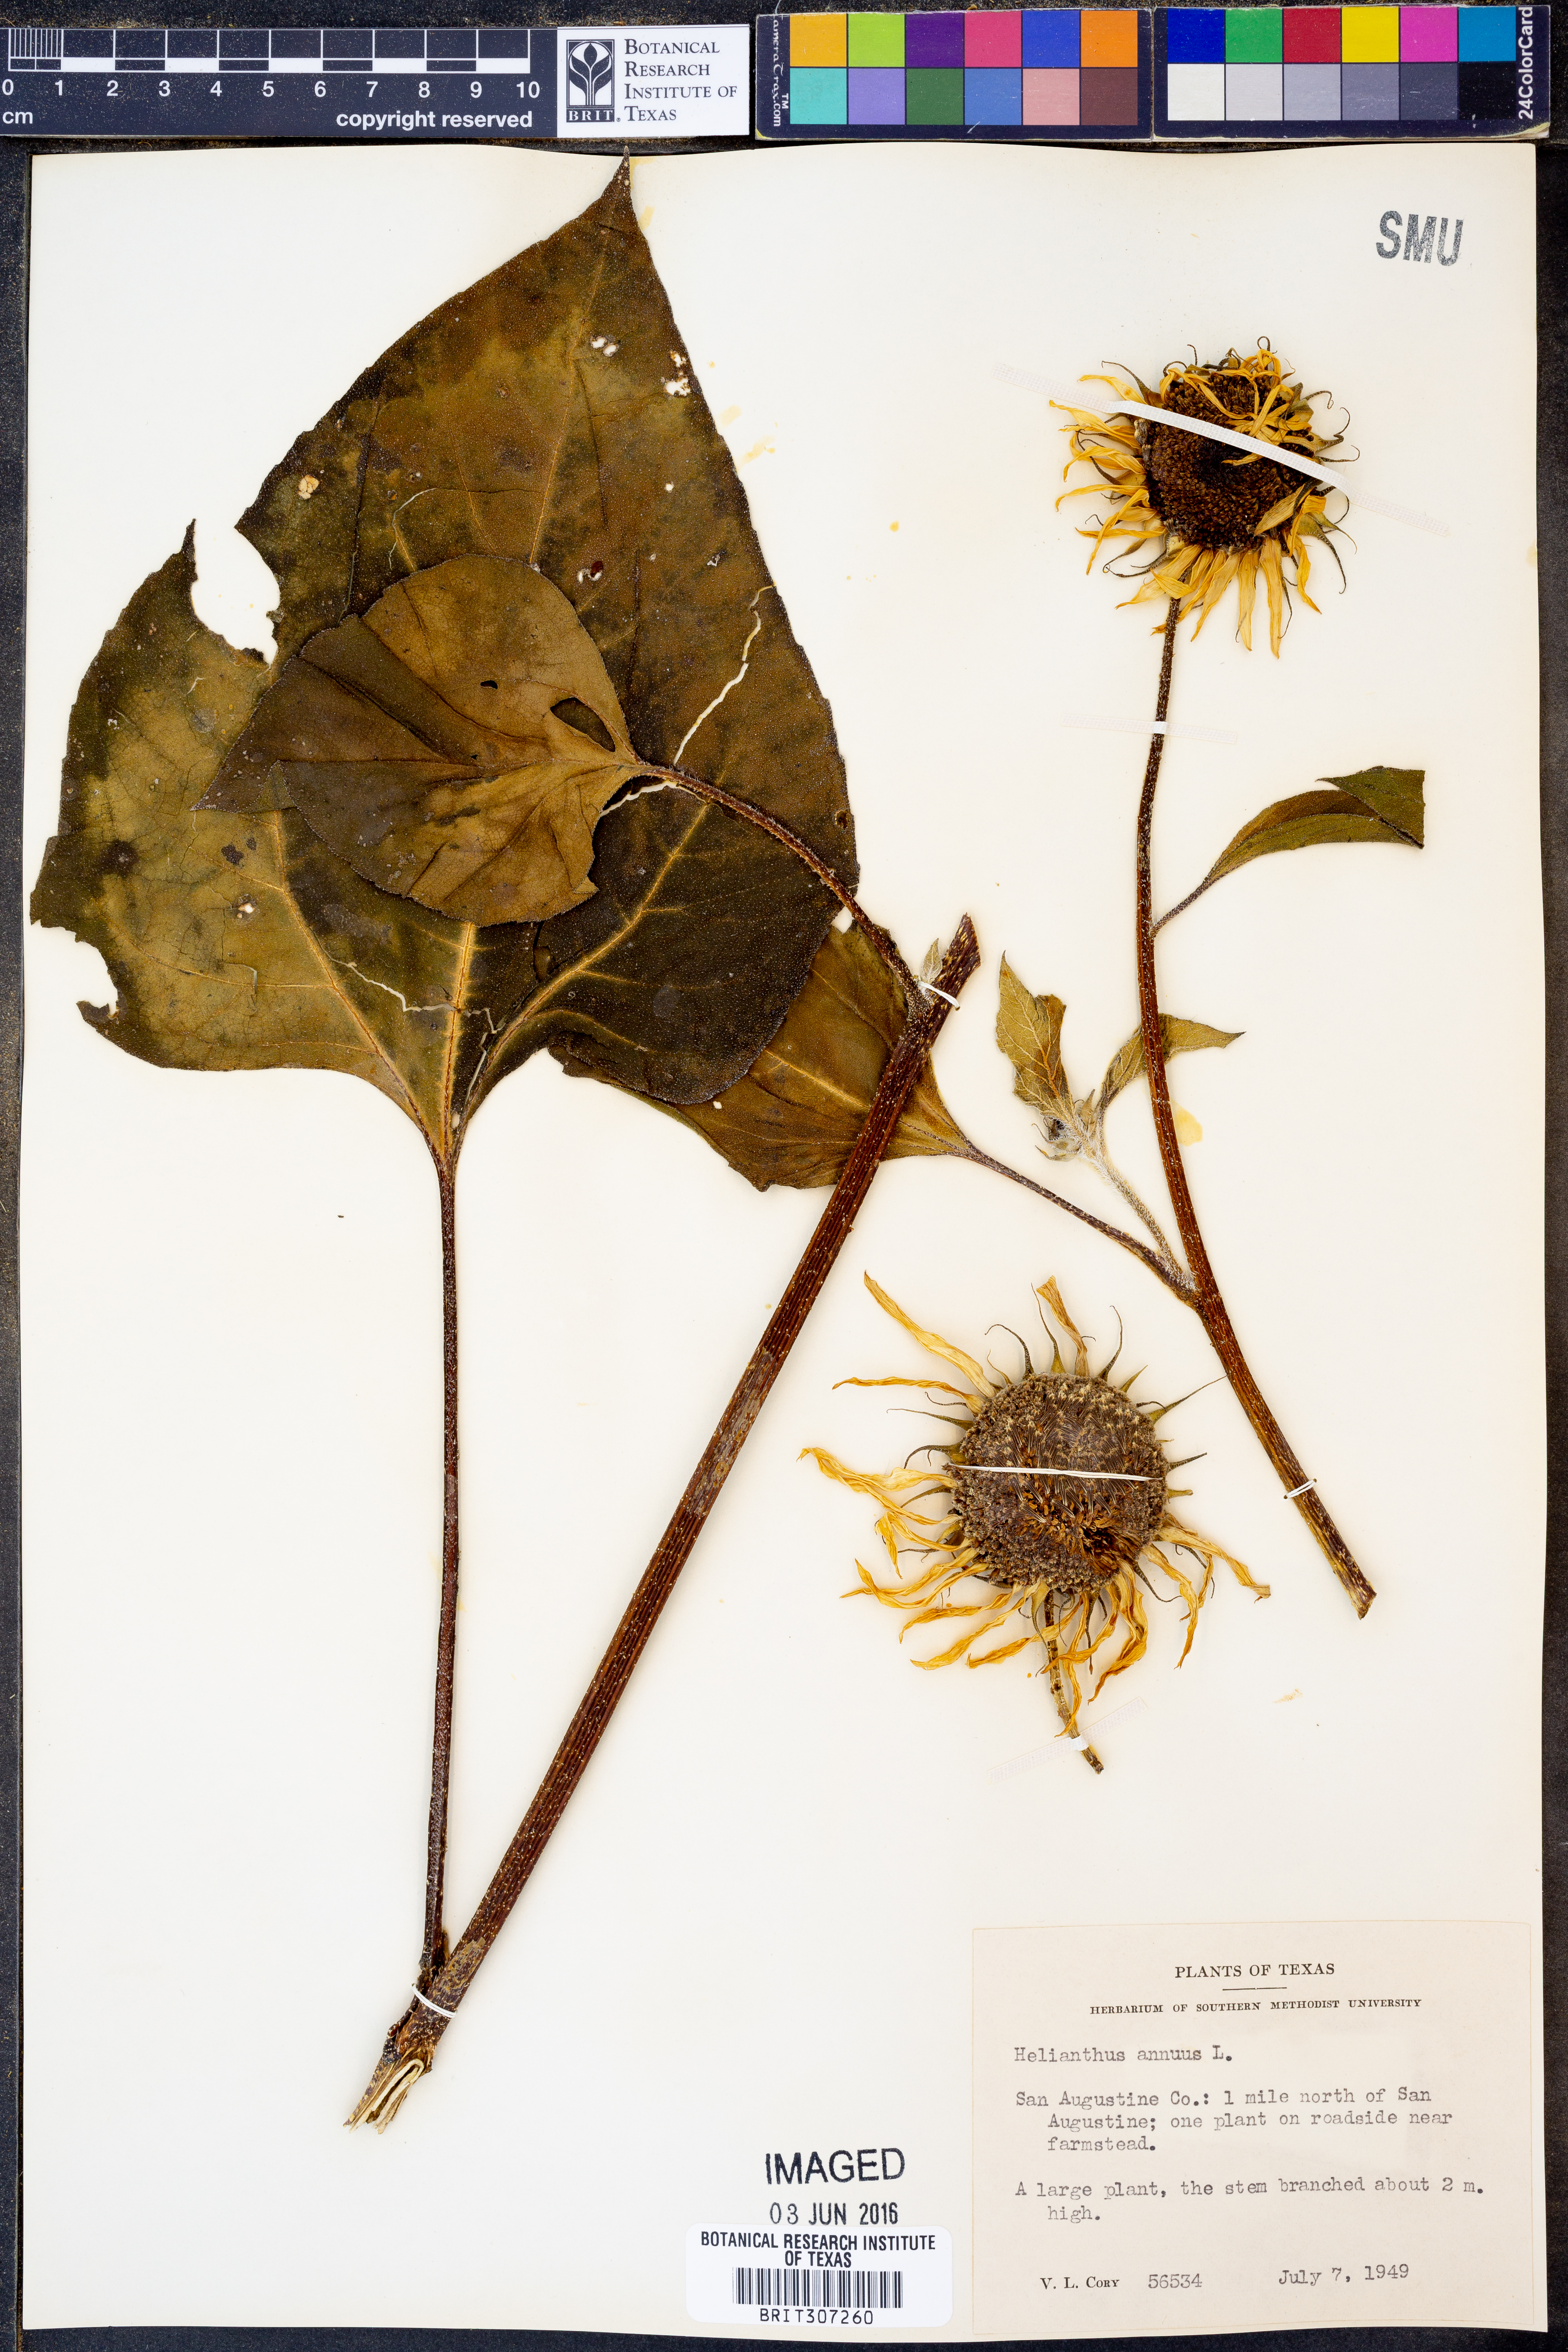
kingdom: Plantae
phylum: Tracheophyta
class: Magnoliopsida
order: Asterales
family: Asteraceae
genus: Helianthus
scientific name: Helianthus annuus
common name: Sunflower
